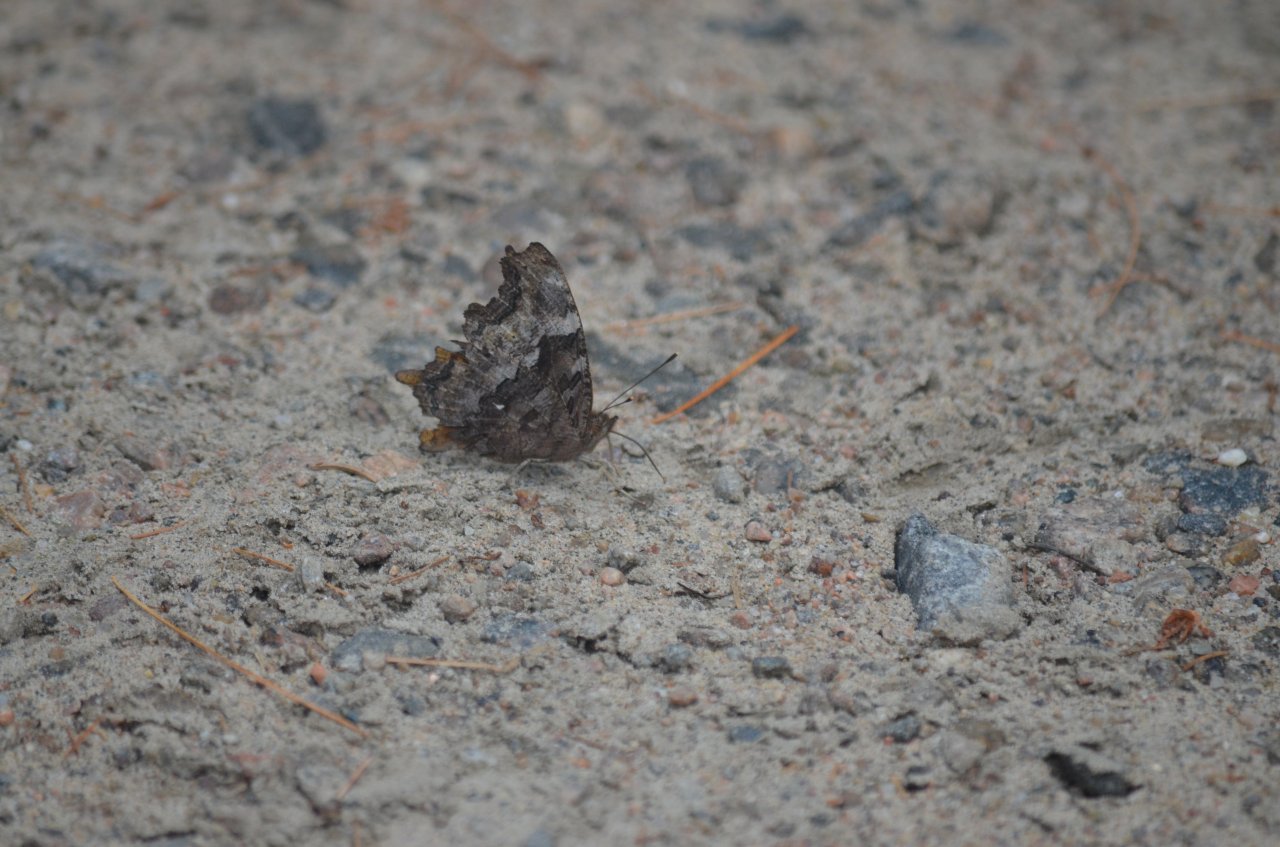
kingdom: Animalia
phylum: Arthropoda
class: Insecta
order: Lepidoptera
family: Nymphalidae
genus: Polygonia
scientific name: Polygonia vaualbum
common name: Compton Tortoiseshell
